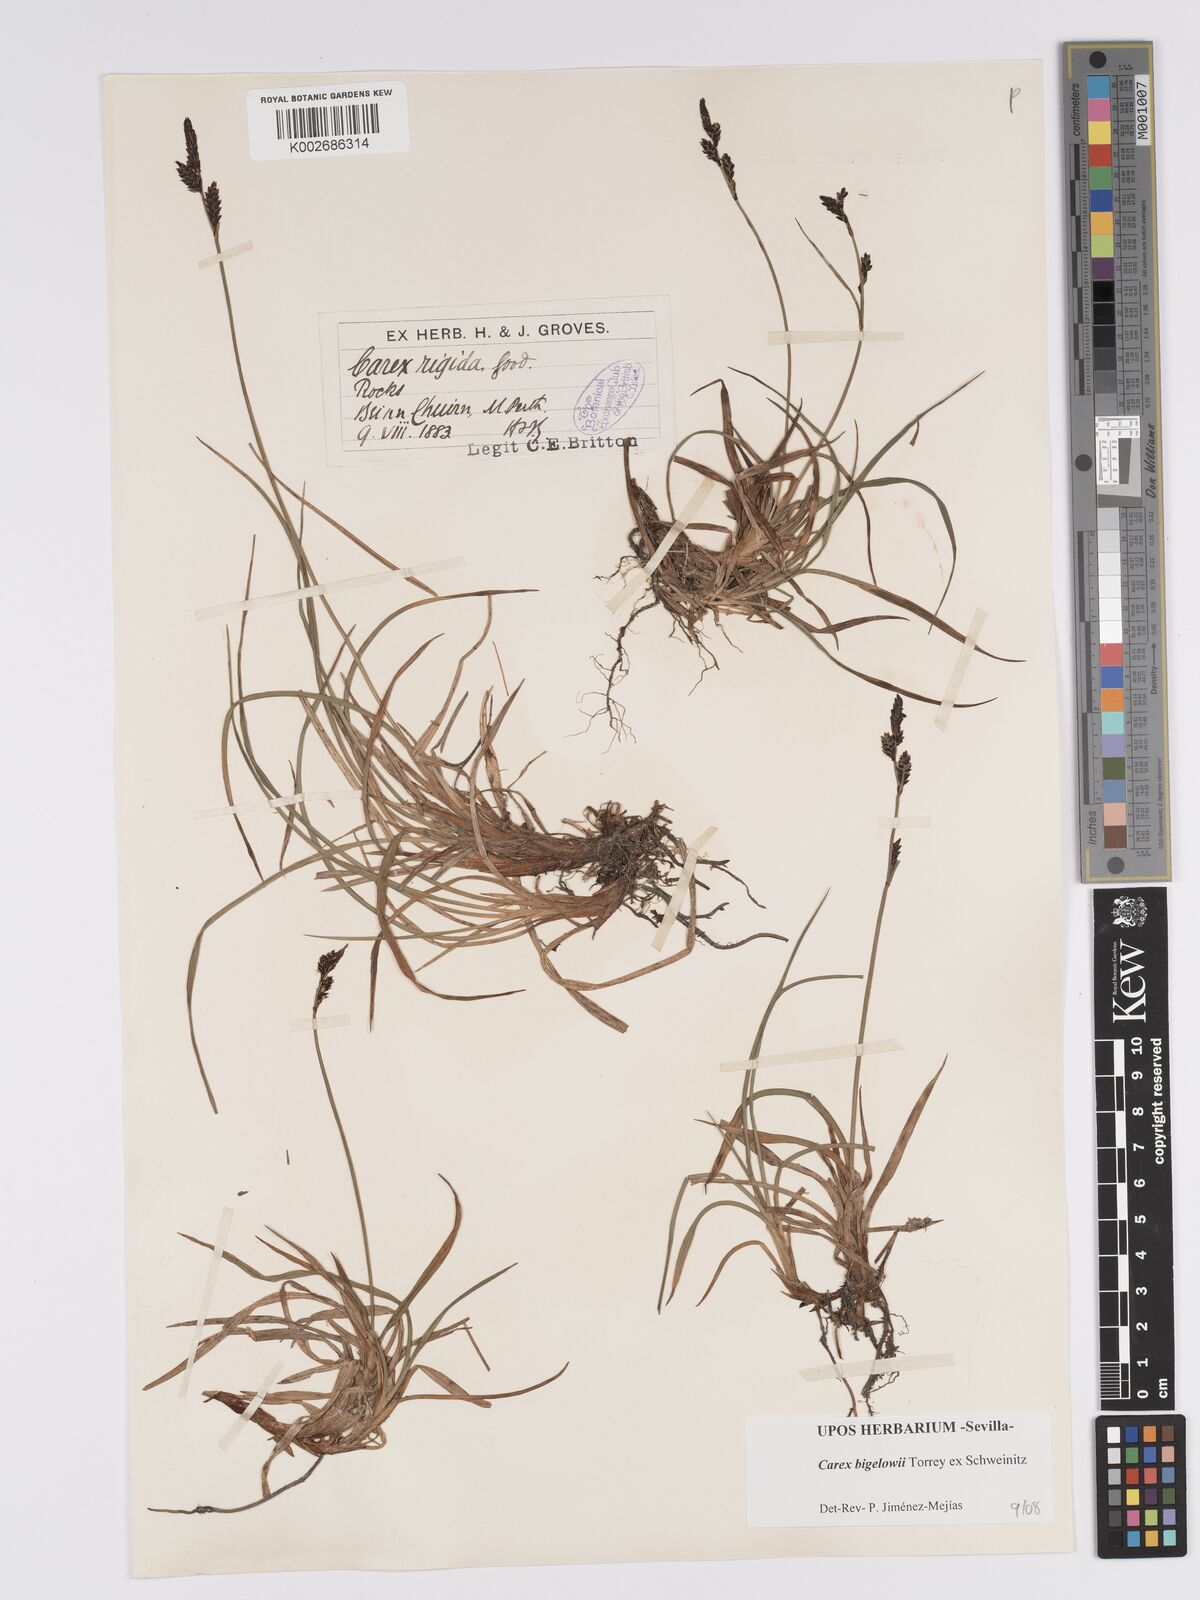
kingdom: Plantae
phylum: Tracheophyta
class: Liliopsida
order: Poales
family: Cyperaceae
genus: Carex
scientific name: Carex bigelowii
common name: Stiff sedge
